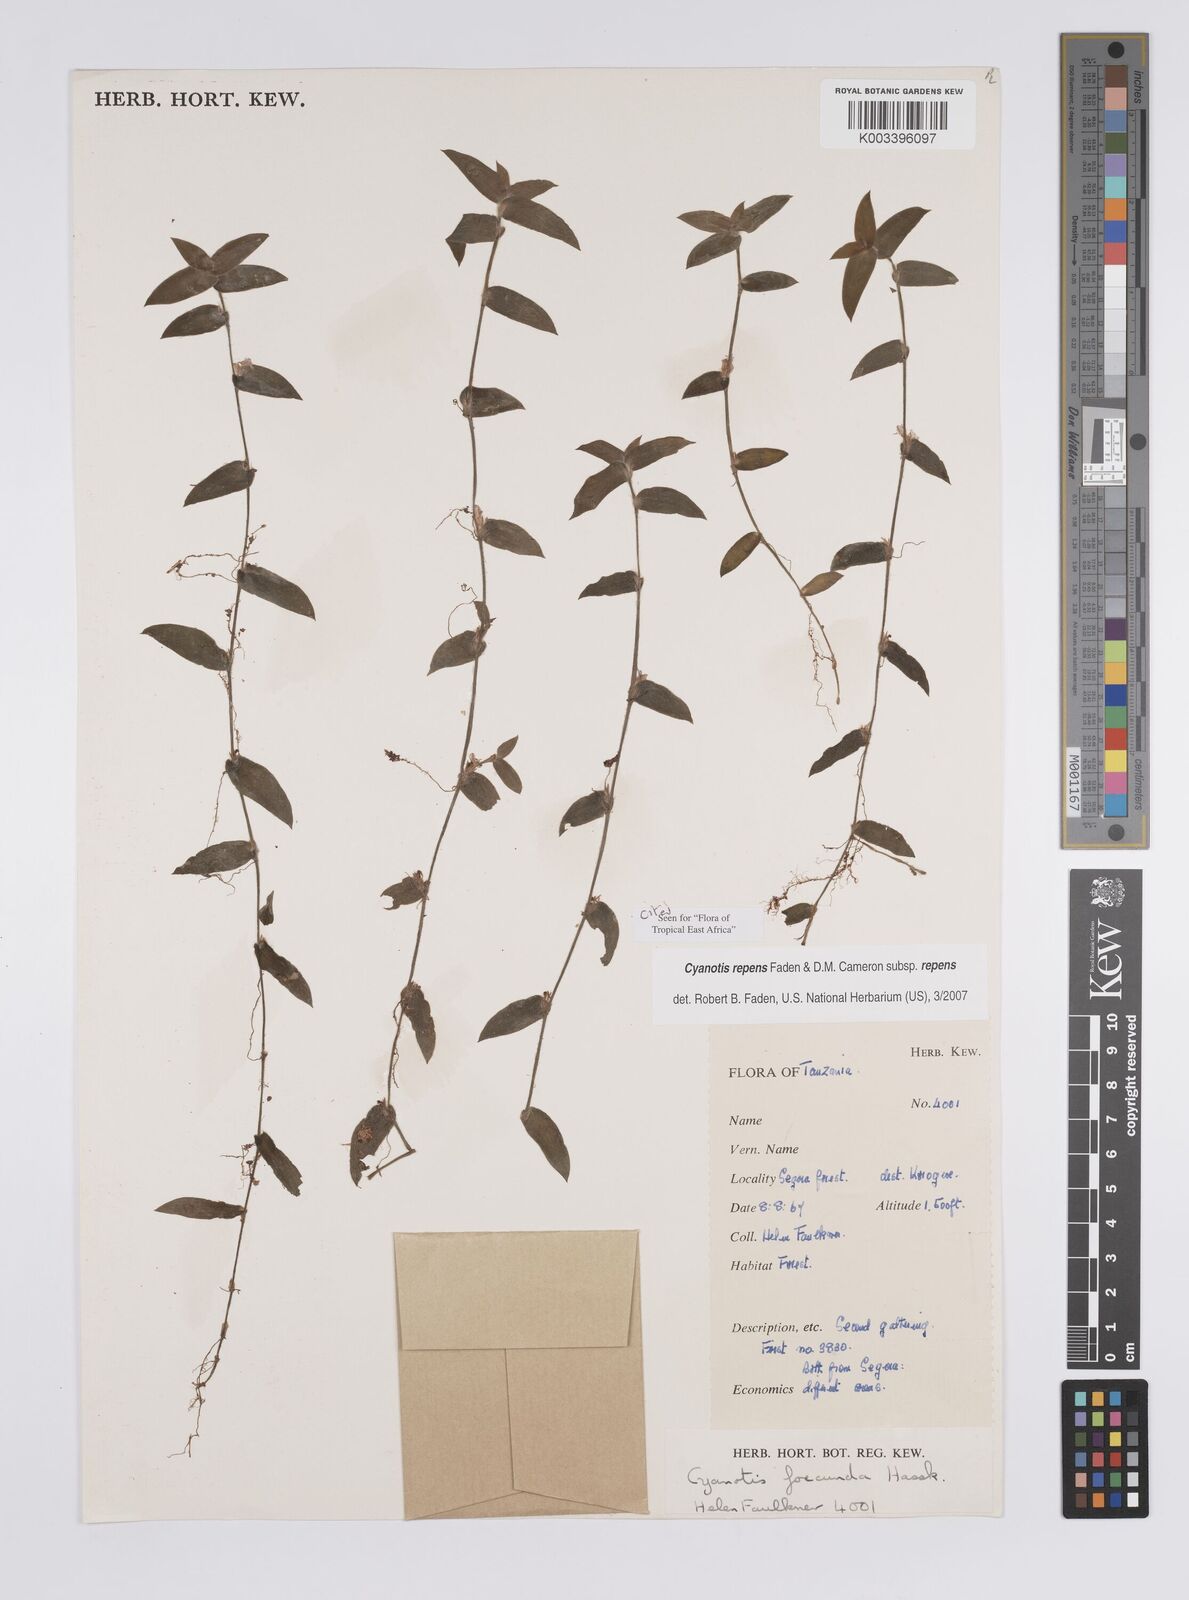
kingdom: Plantae
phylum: Tracheophyta
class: Liliopsida
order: Commelinales
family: Commelinaceae
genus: Cyanotis
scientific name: Cyanotis repens
